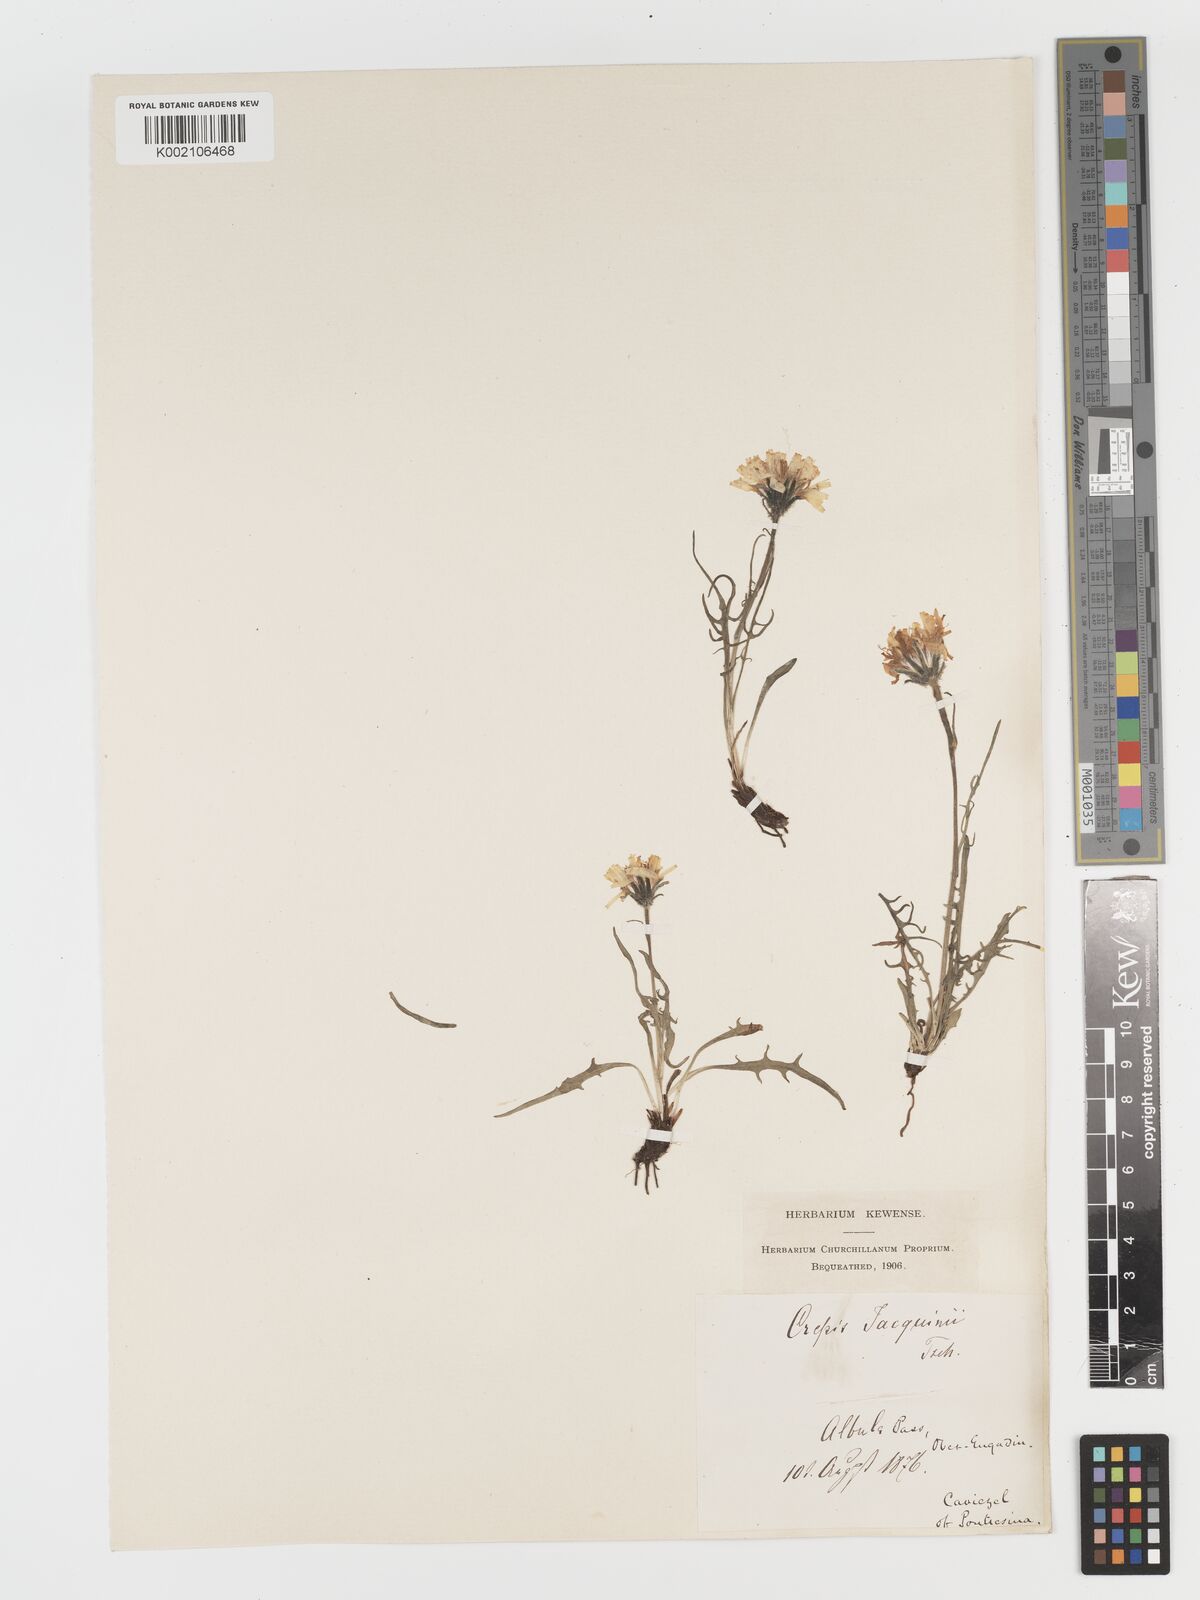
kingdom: Plantae
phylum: Tracheophyta
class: Magnoliopsida
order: Asterales
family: Asteraceae
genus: Crepis
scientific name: Crepis jacquinii
